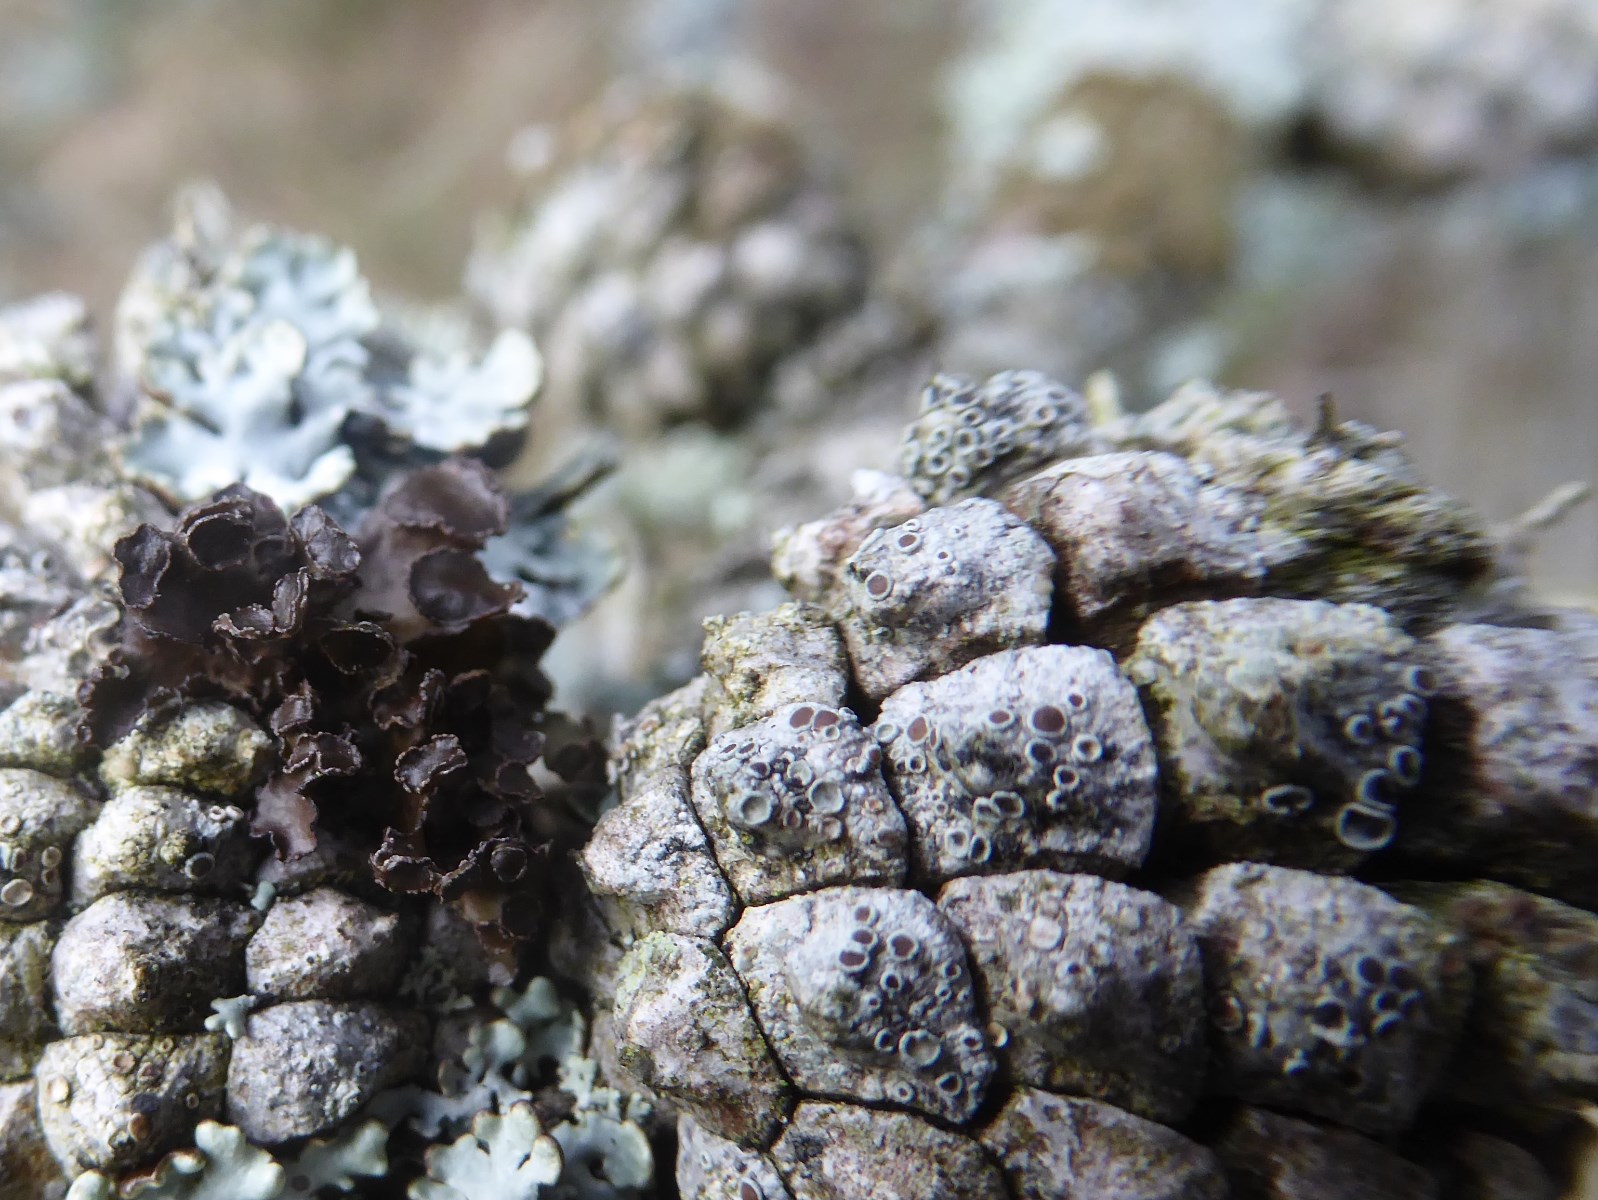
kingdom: Fungi
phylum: Ascomycota
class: Lecanoromycetes
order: Lecanorales
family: Parmeliaceae
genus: Cetraria
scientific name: Cetraria sepincola
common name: tue-kruslav
